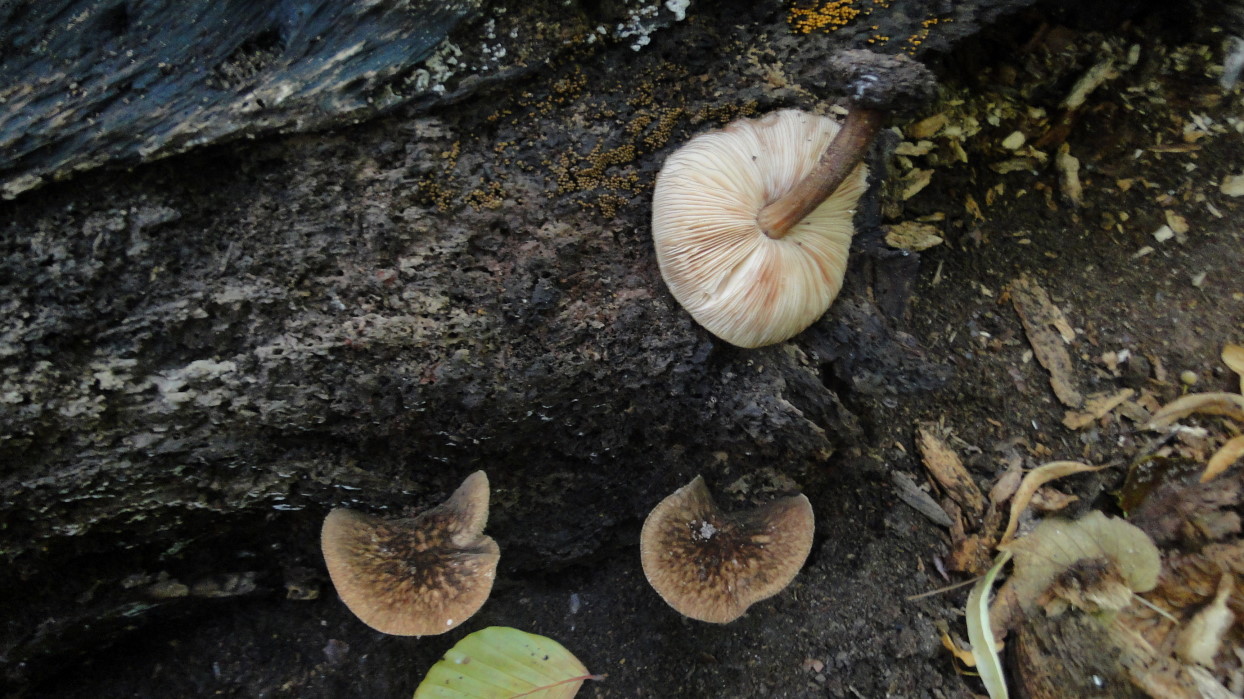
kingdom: Fungi
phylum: Basidiomycota
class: Agaricomycetes
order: Agaricales
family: Pluteaceae
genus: Pluteus
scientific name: Pluteus umbrosus
